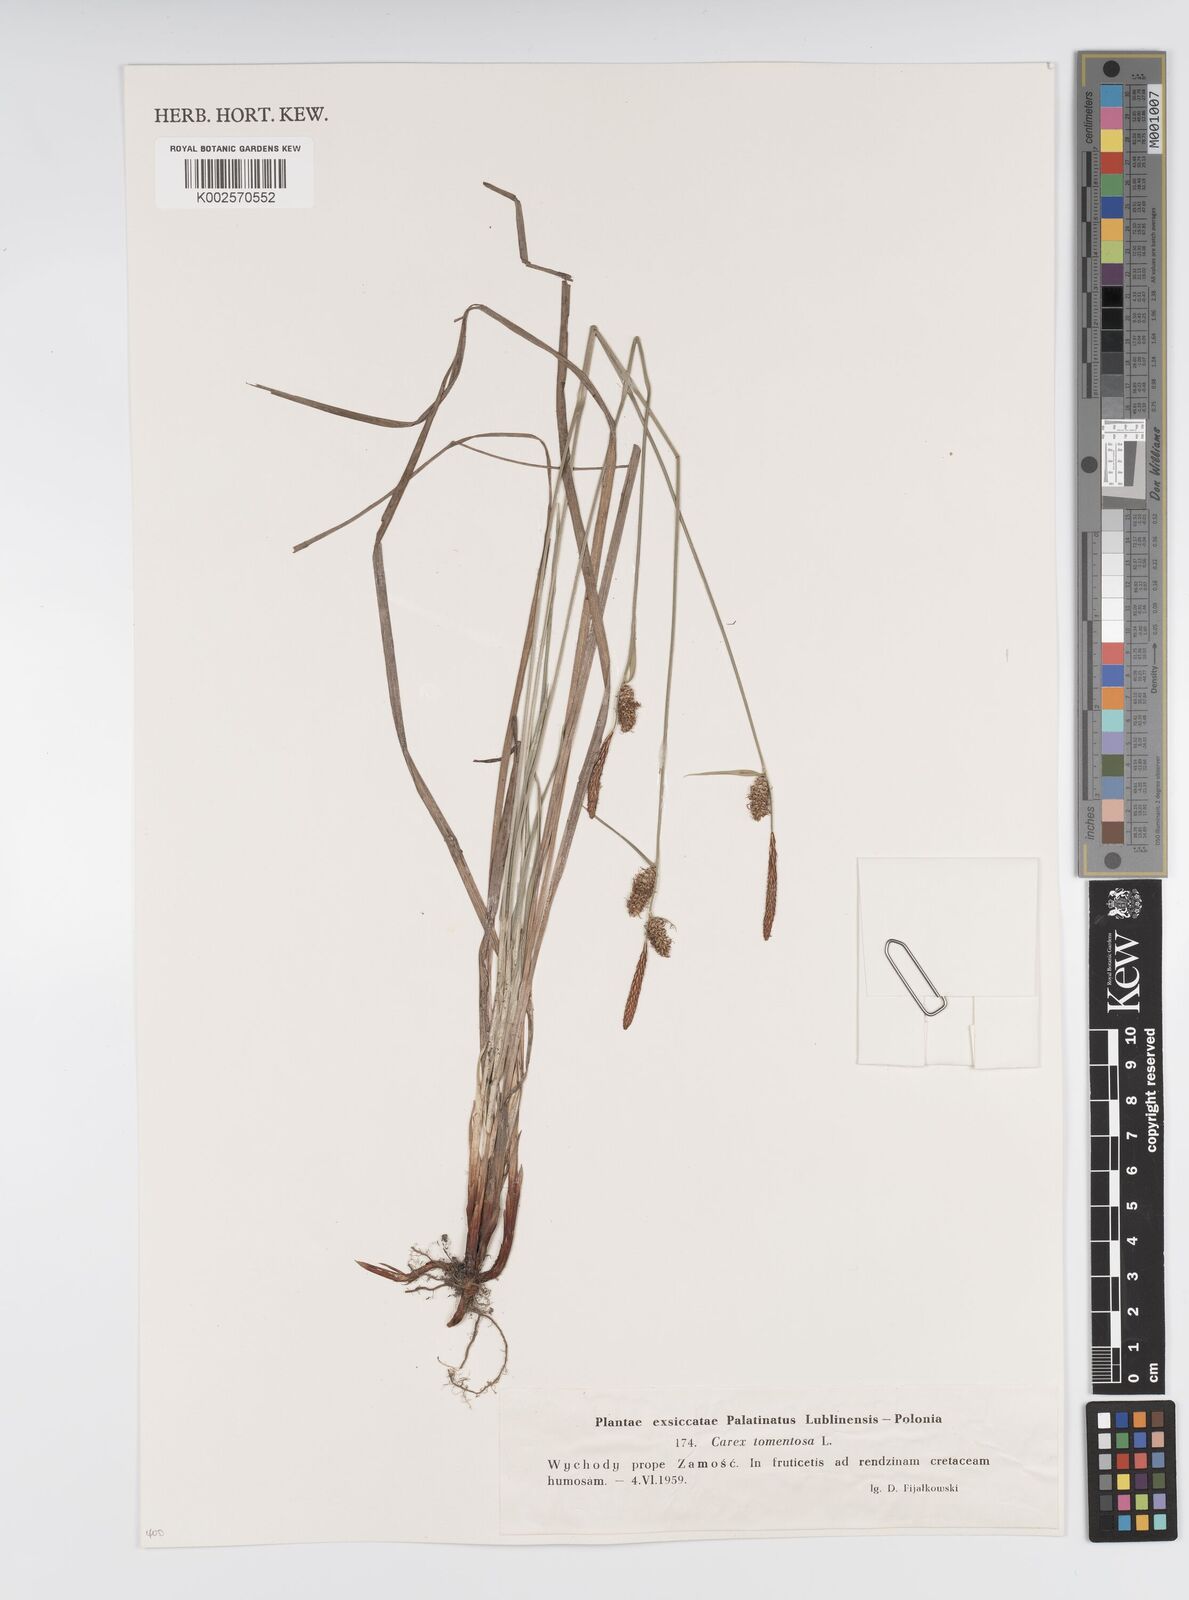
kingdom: Plantae
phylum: Tracheophyta
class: Liliopsida
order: Poales
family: Cyperaceae
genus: Carex
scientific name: Carex montana
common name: Soft-leaved sedge
